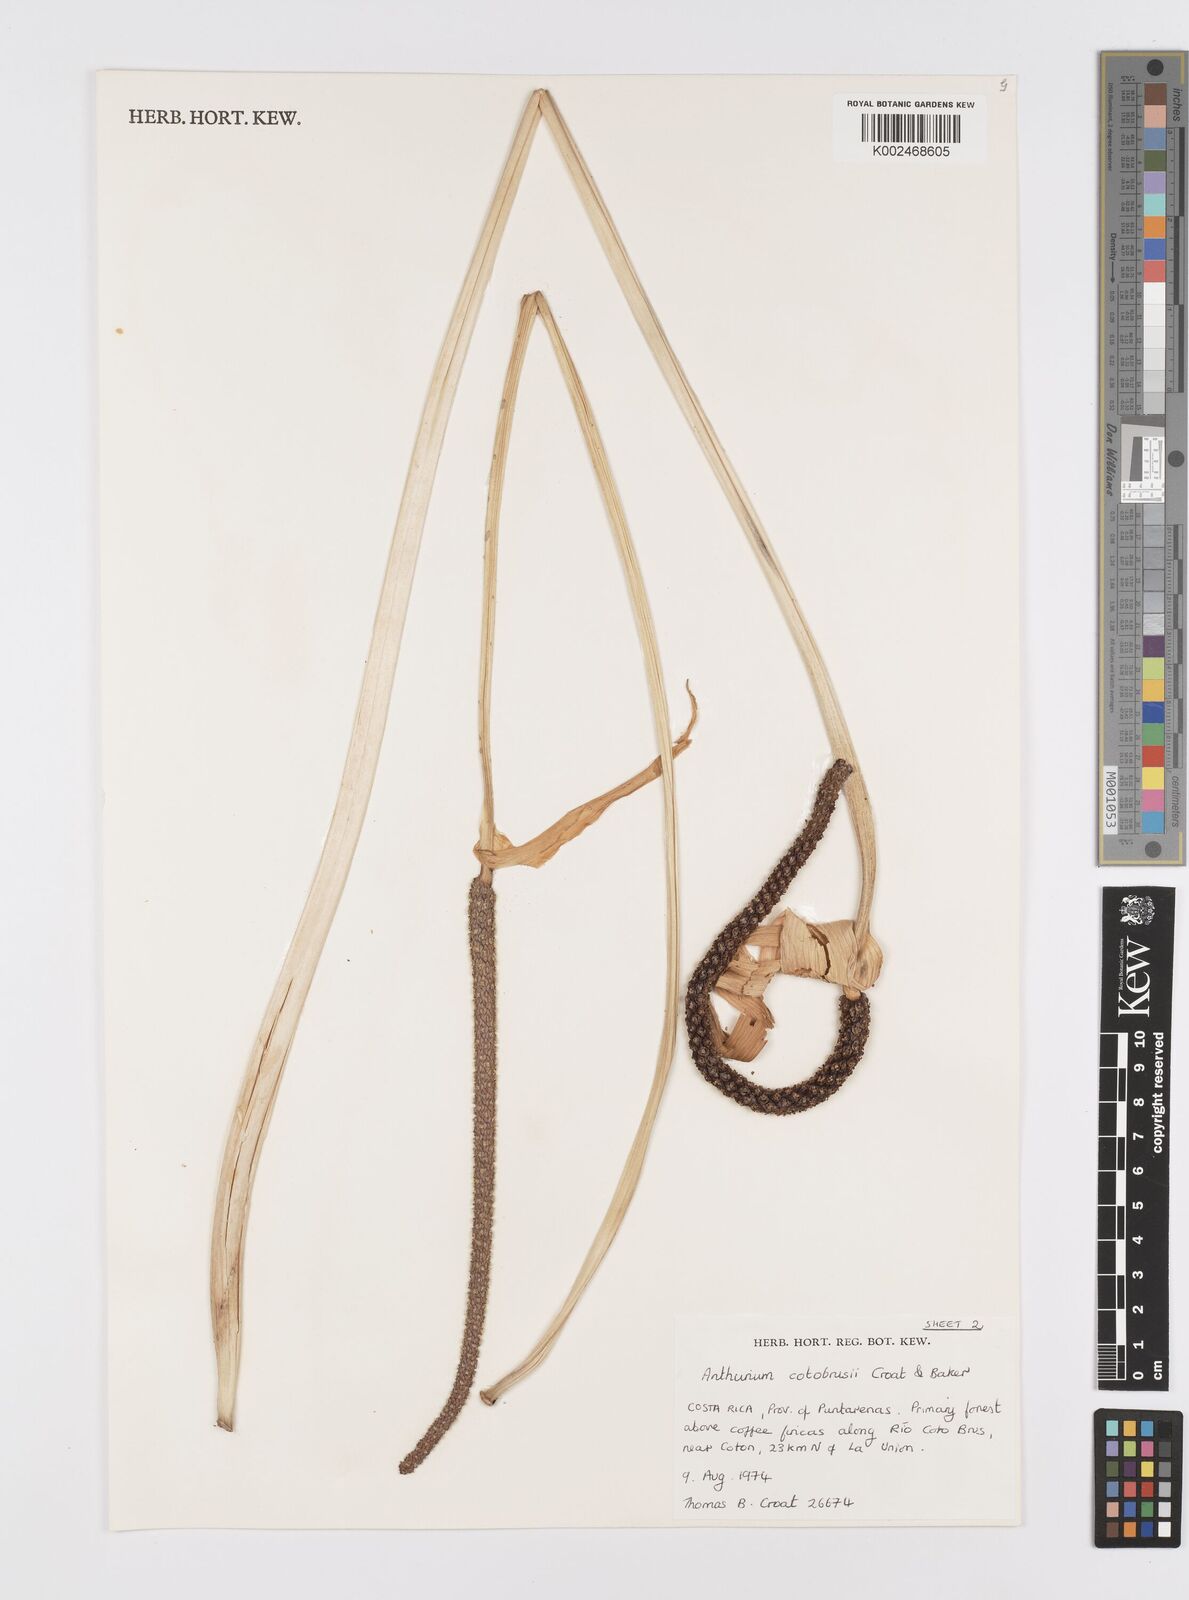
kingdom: Plantae
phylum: Tracheophyta
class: Liliopsida
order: Alismatales
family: Araceae
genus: Anthurium
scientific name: Anthurium cotobrusii
